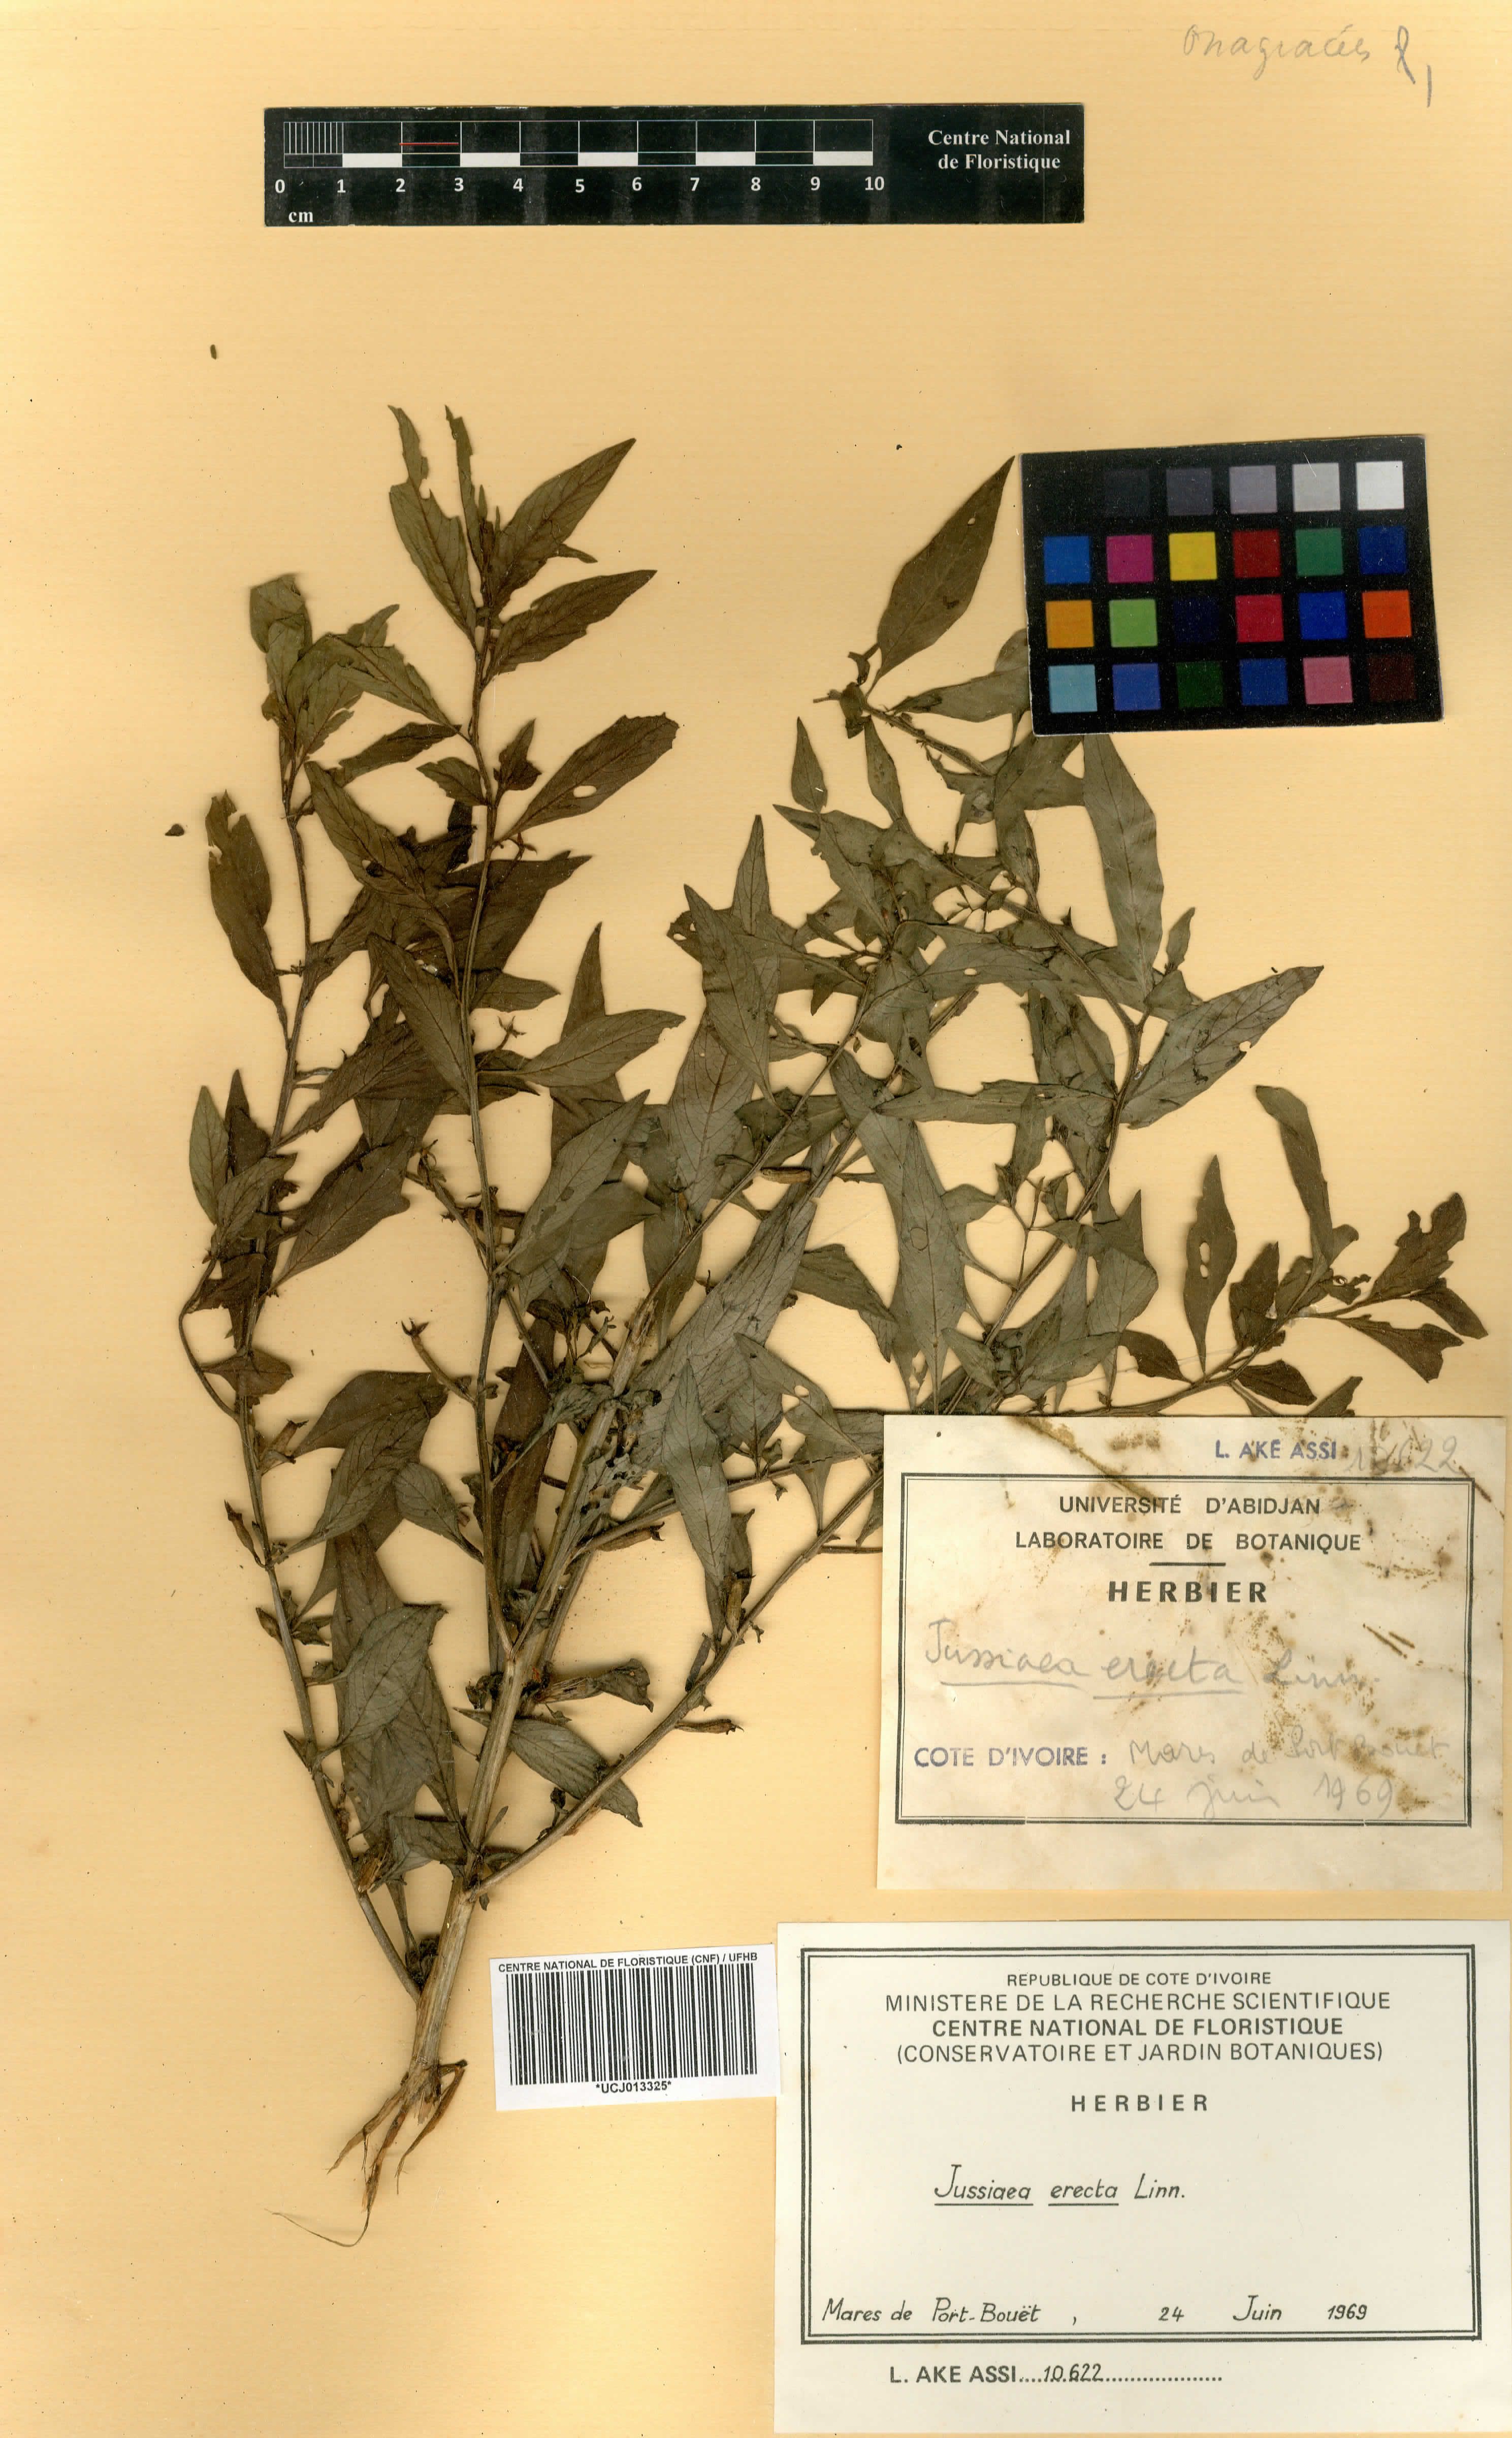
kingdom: Plantae
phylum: Tracheophyta
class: Magnoliopsida
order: Myrtales
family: Onagraceae
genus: Ludwigia
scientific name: Ludwigia erecta
